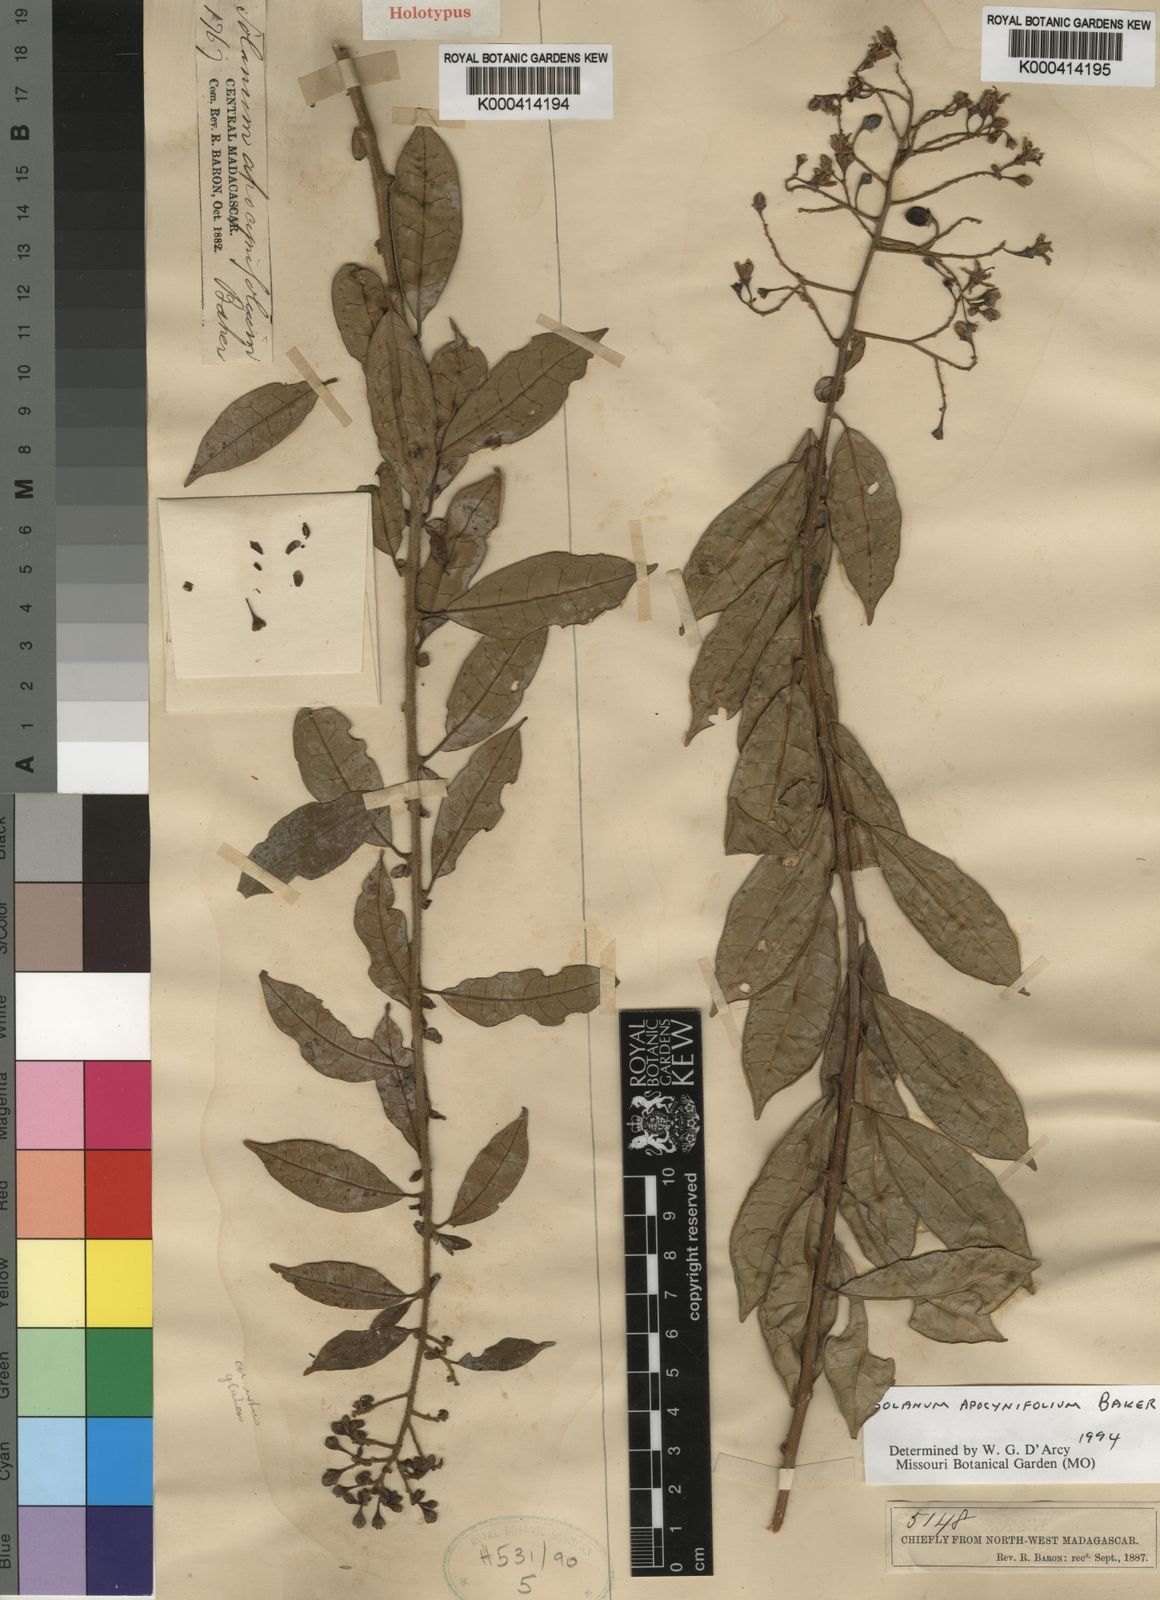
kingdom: Plantae
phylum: Tracheophyta
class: Magnoliopsida
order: Solanales
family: Solanaceae
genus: Solanum
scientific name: Solanum madagascariense
